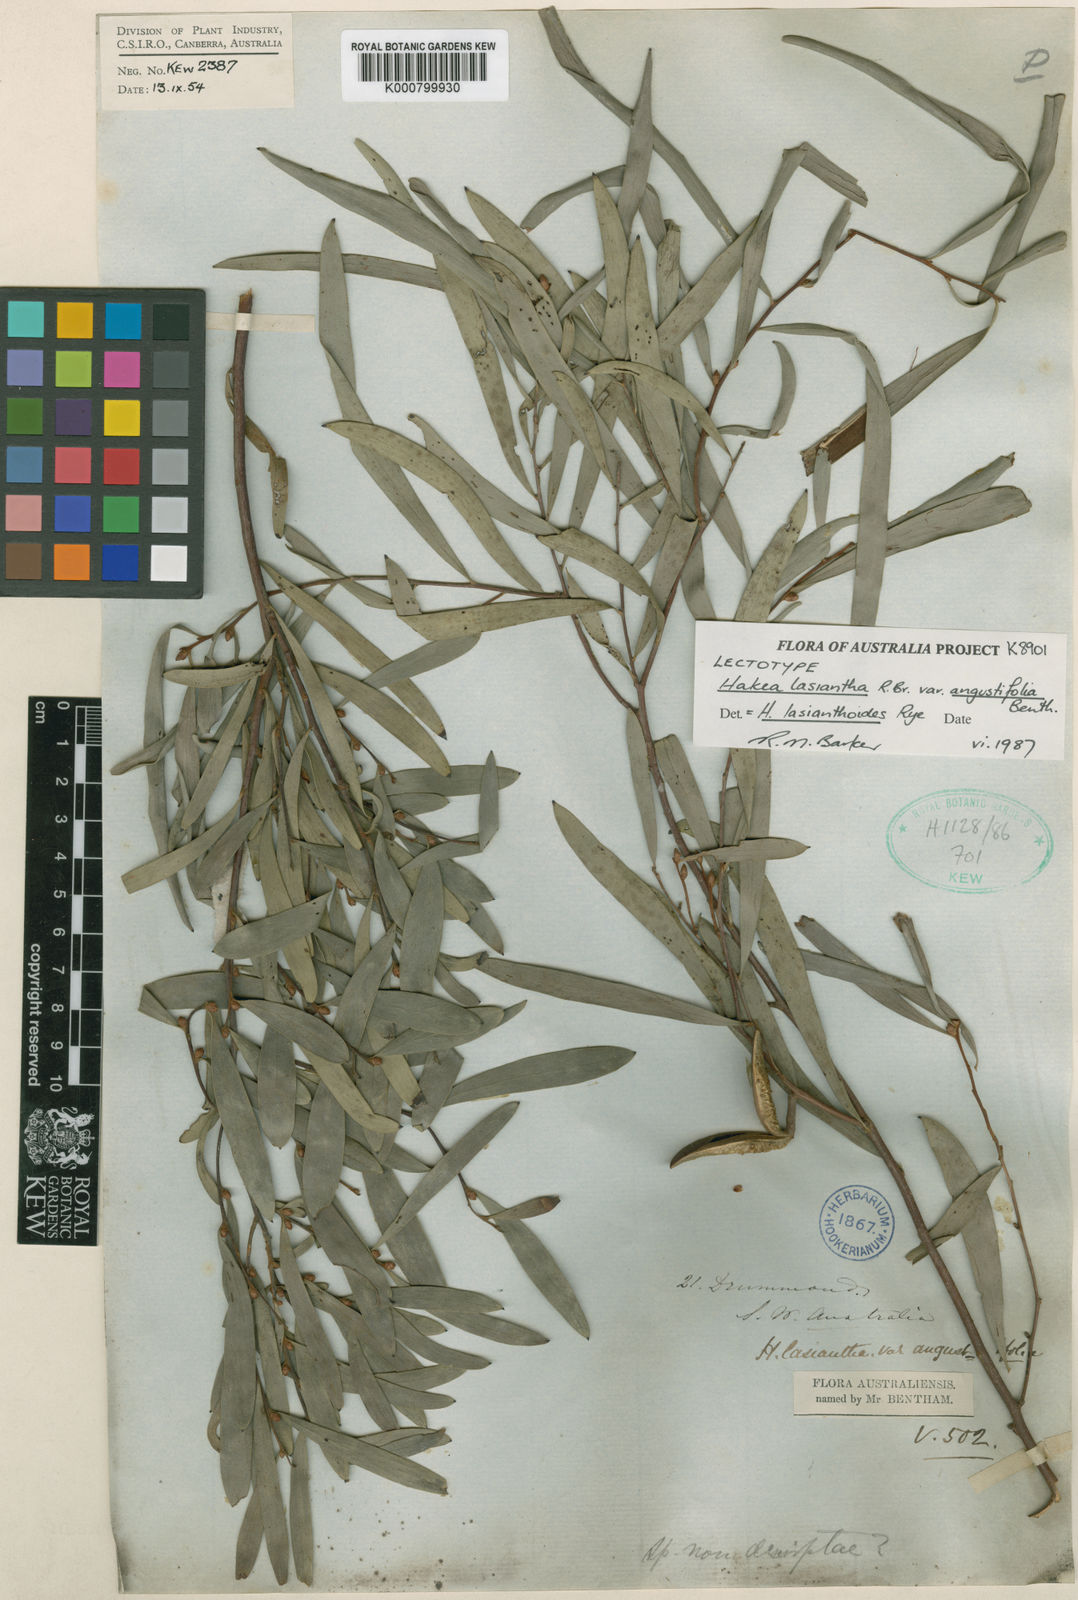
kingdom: Plantae
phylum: Tracheophyta
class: Magnoliopsida
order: Proteales
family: Proteaceae
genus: Hakea
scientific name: Hakea lasiantha
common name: Woolly-flower hakea
